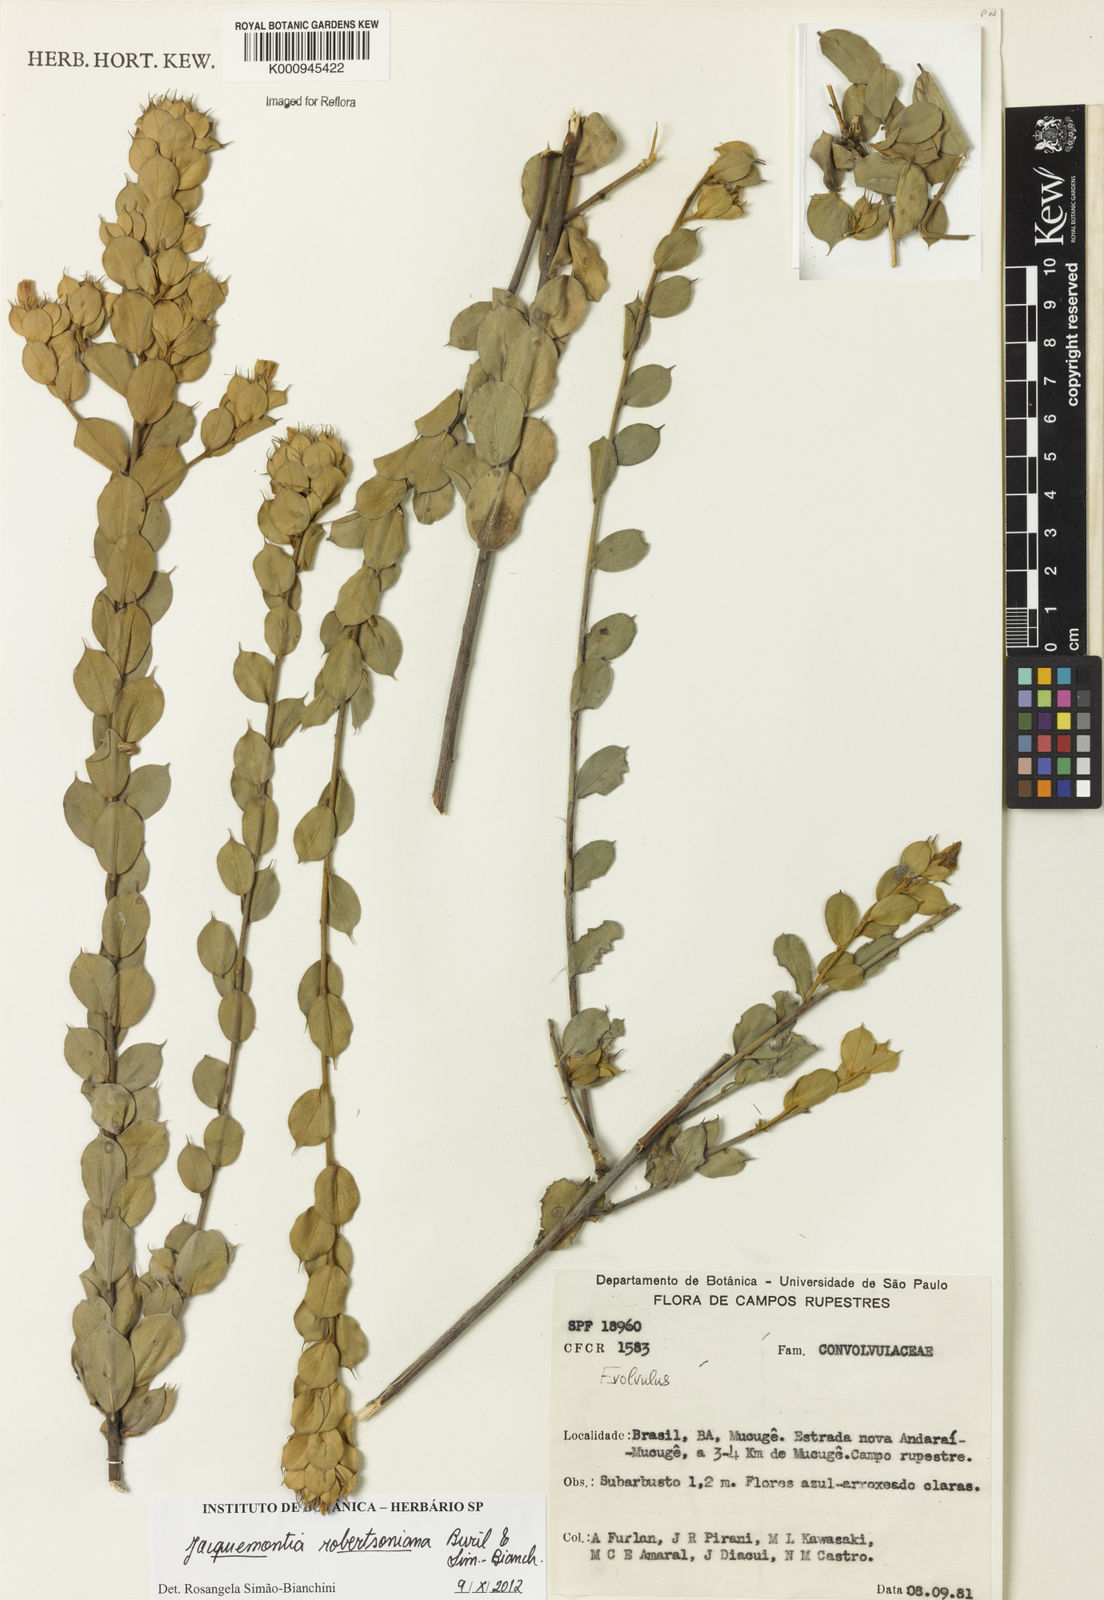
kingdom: Plantae
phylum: Tracheophyta
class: Magnoliopsida
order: Solanales
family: Convolvulaceae
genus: Jacquemontia
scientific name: Jacquemontia
